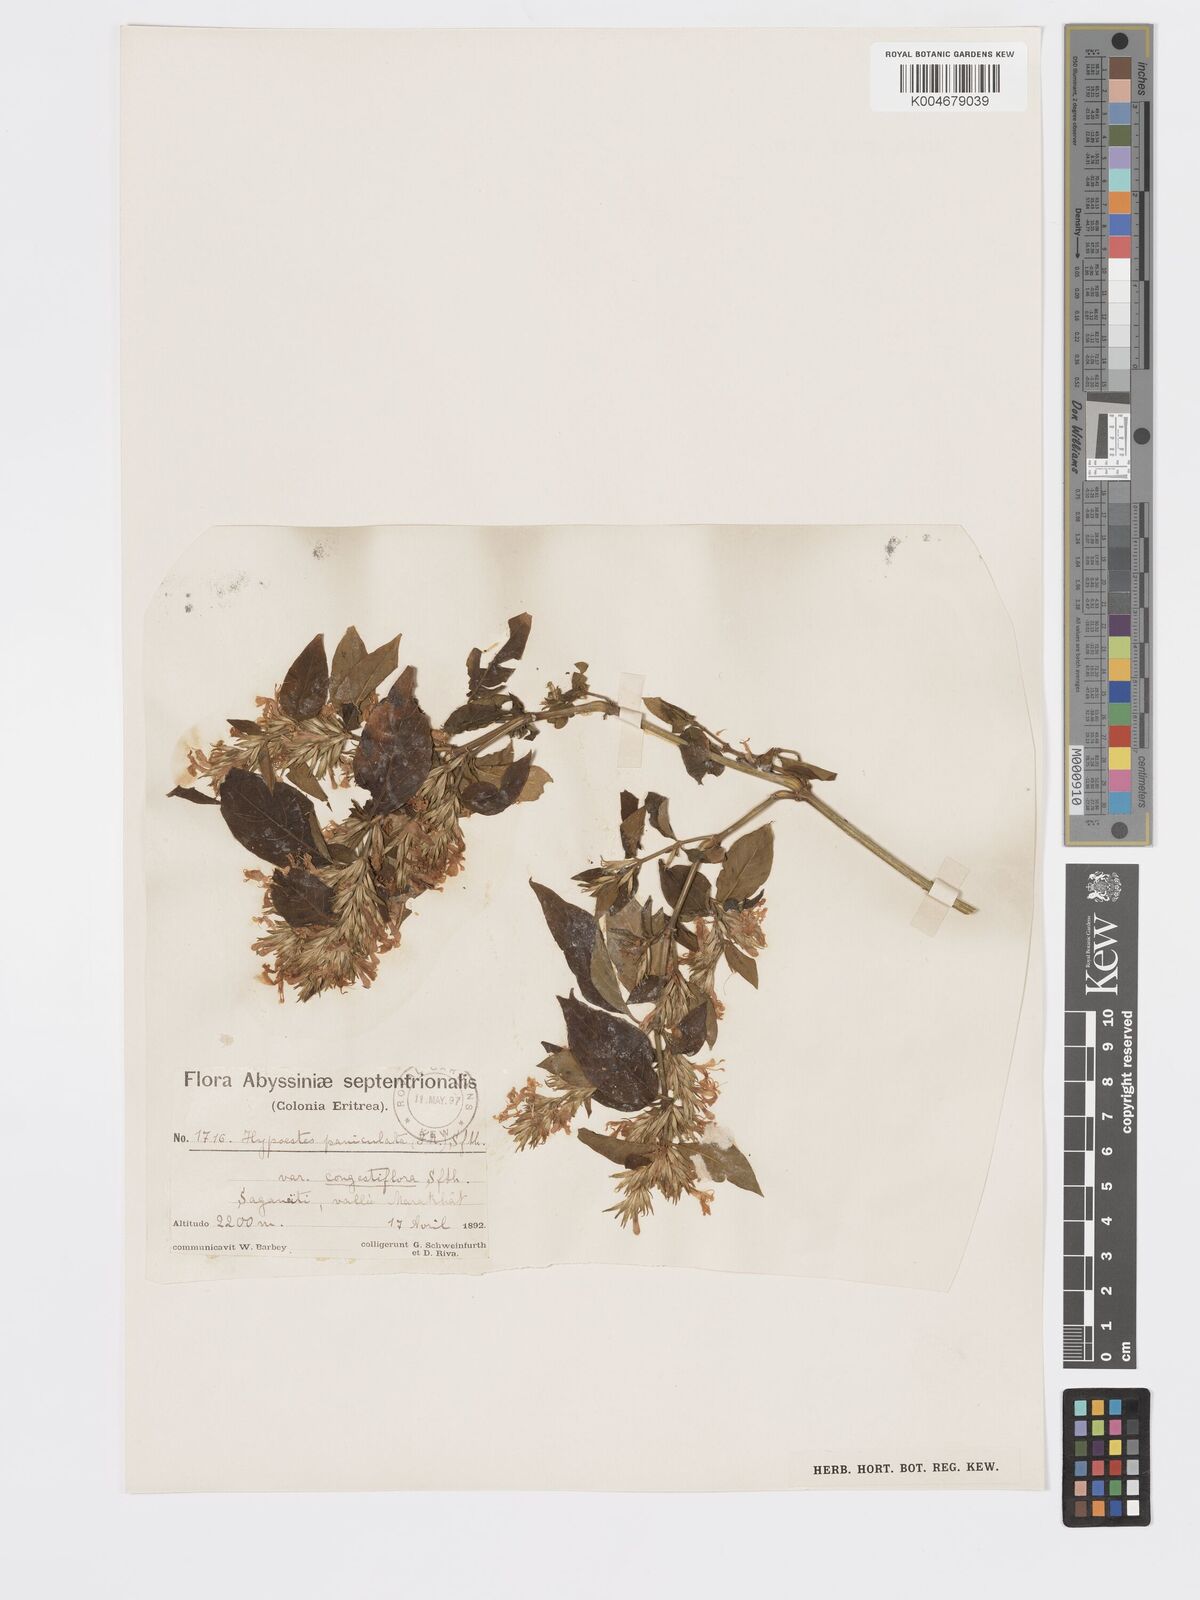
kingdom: Plantae
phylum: Tracheophyta
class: Magnoliopsida
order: Lamiales
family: Acanthaceae
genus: Hypoestes
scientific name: Hypoestes forskaolii
